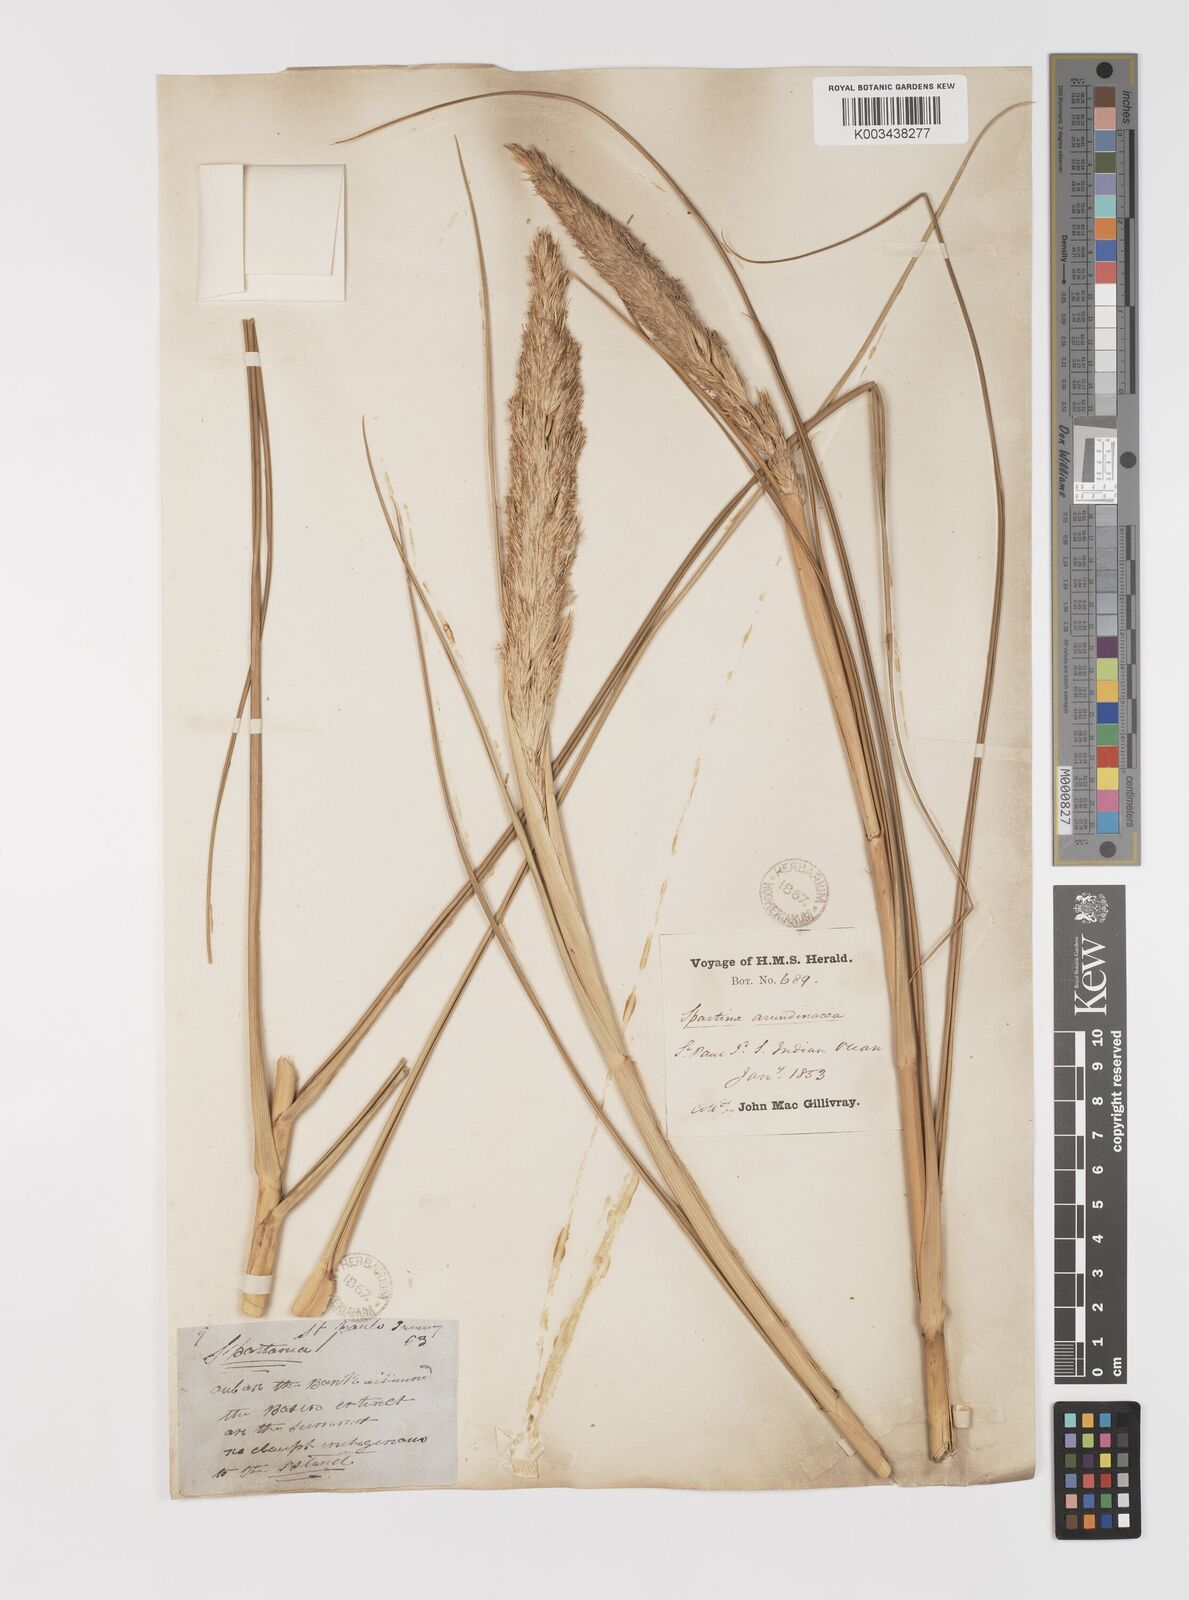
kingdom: Plantae
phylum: Tracheophyta
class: Liliopsida
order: Poales
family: Poaceae
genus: Sporobolus
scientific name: Sporobolus mobberleyanus
